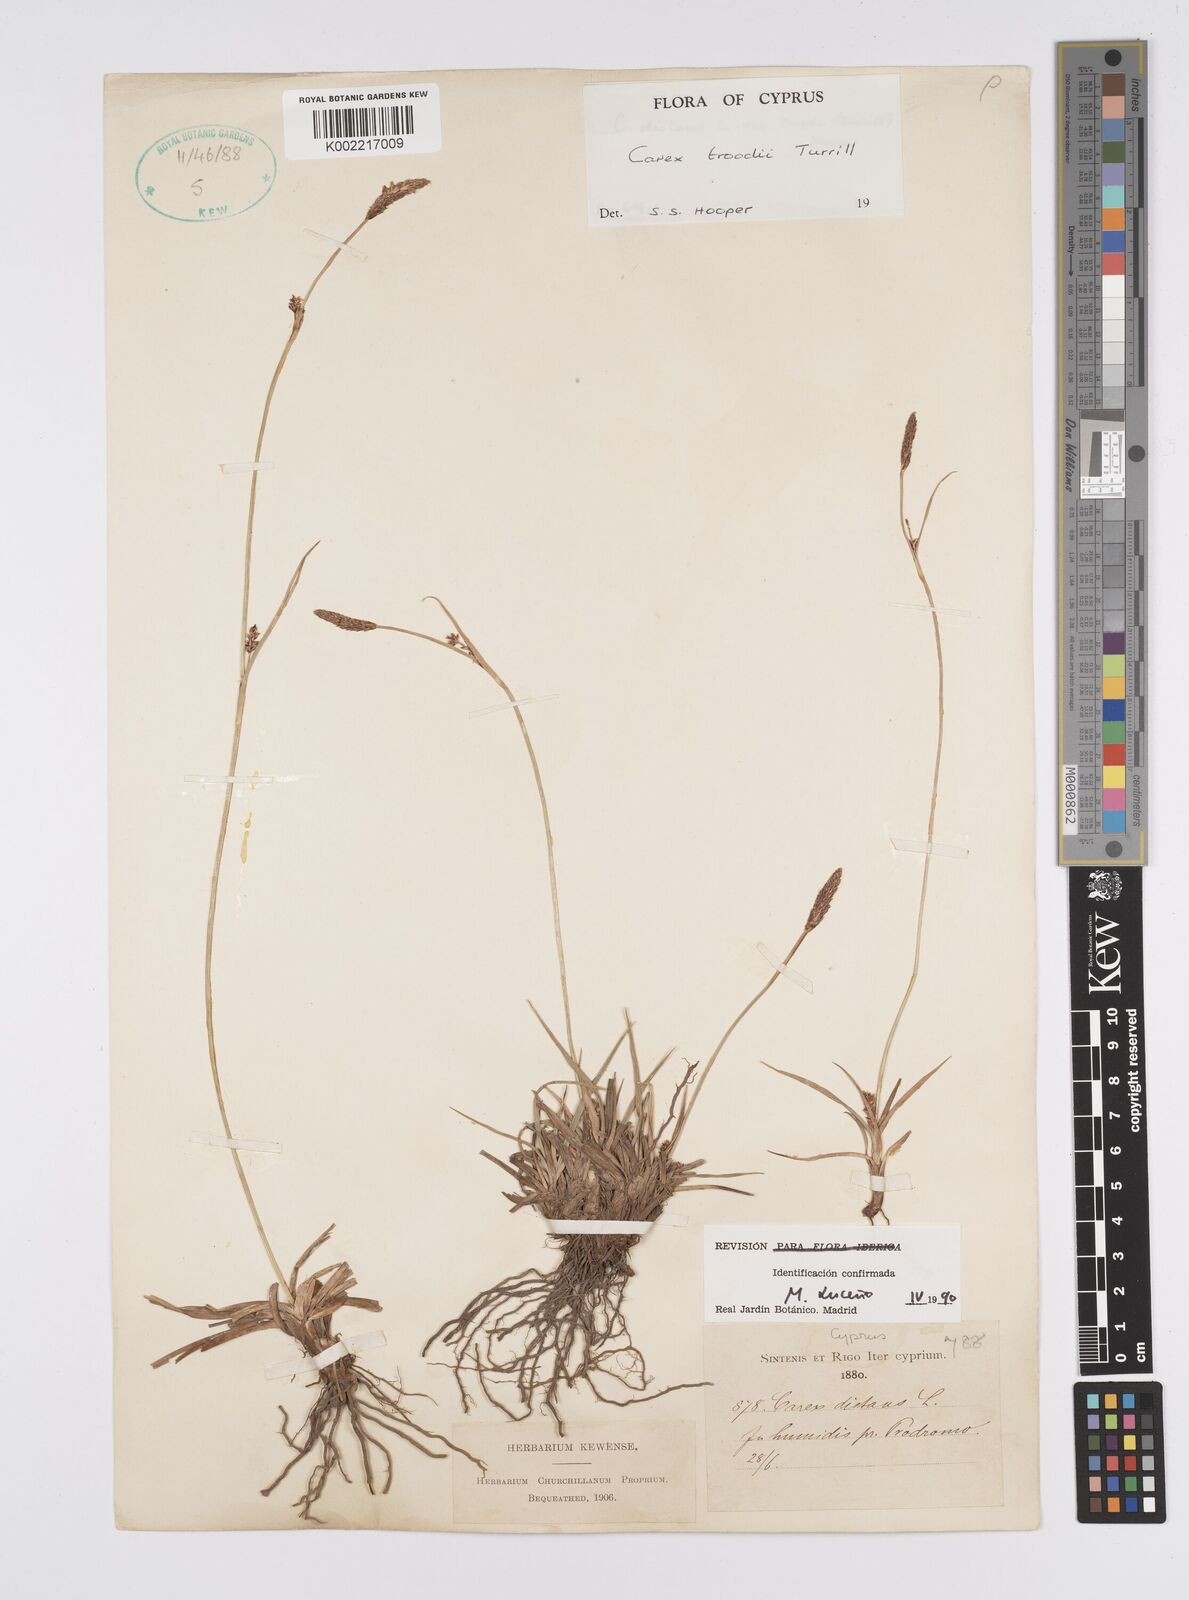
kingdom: Plantae
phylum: Tracheophyta
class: Liliopsida
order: Poales
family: Cyperaceae
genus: Carex
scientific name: Carex troodi
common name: Troodos mount sedge
